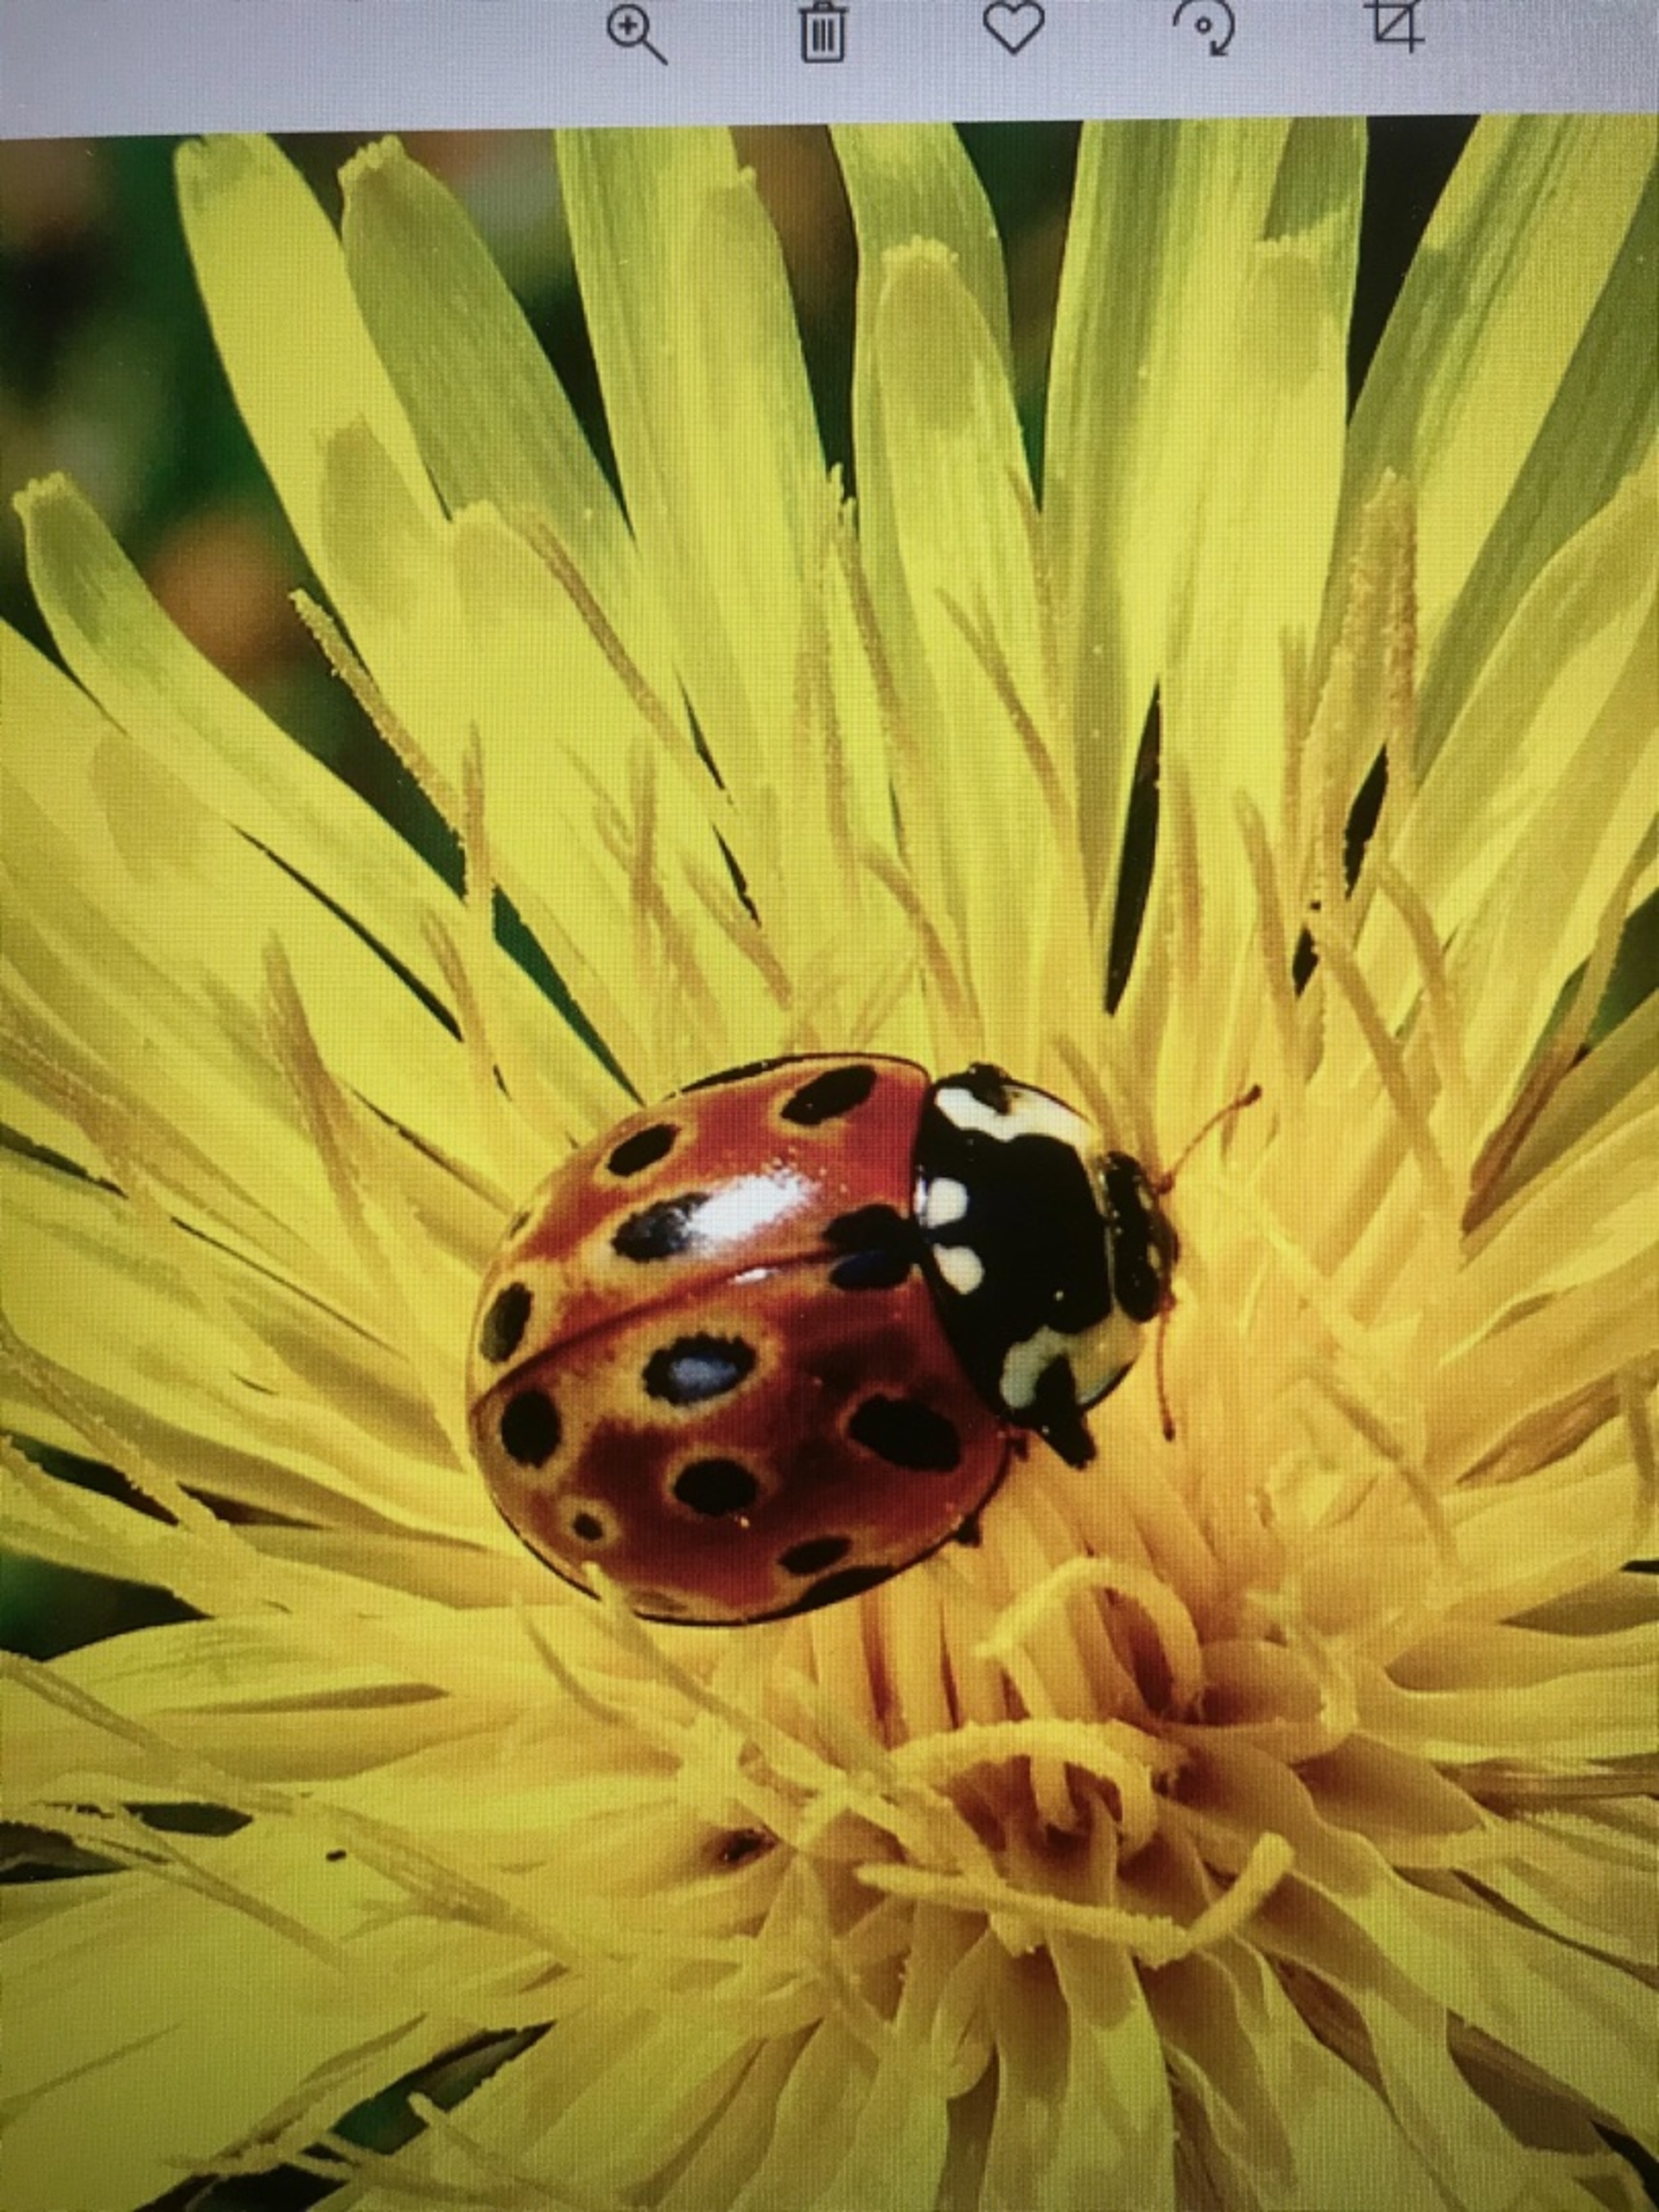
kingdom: Animalia
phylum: Arthropoda
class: Insecta
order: Coleoptera
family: Coccinellidae
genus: Anatis
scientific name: Anatis ocellata
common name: Øjeplettet mariehøne
